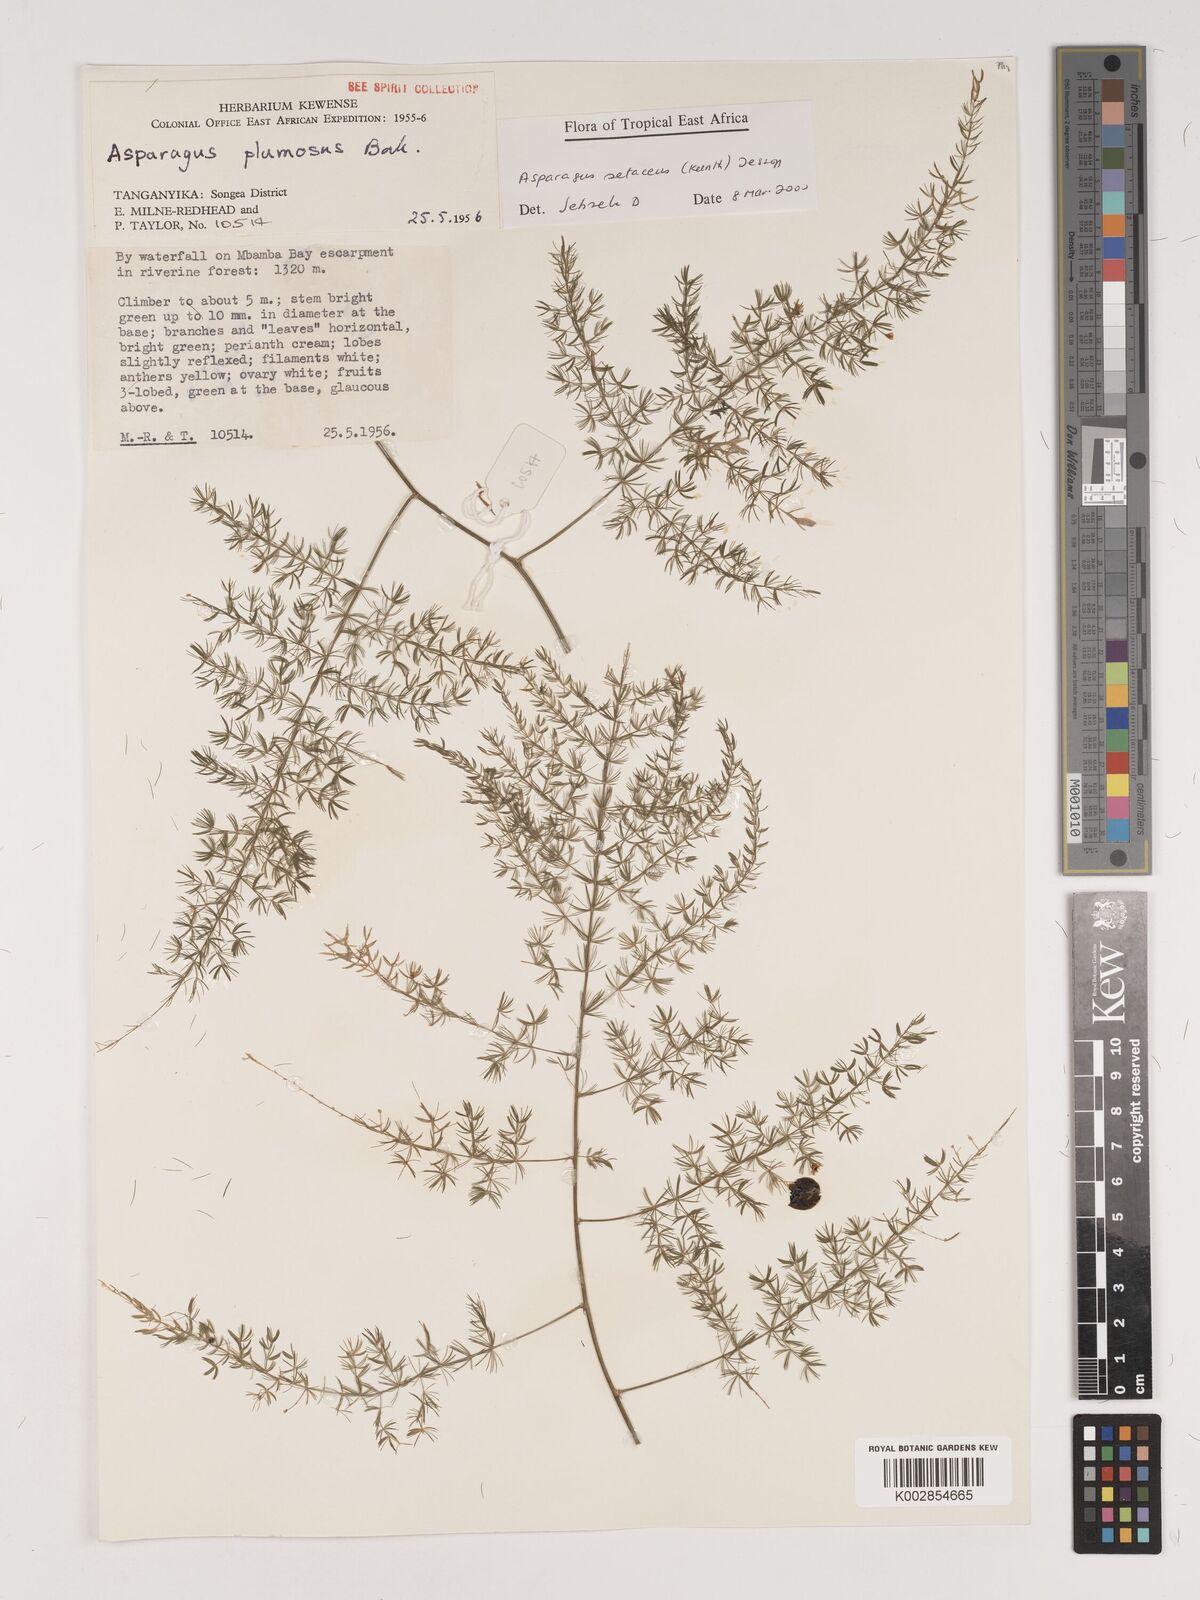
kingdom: Plantae
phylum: Tracheophyta
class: Liliopsida
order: Asparagales
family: Asparagaceae
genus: Asparagus
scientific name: Asparagus setaceus
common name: Common asparagus fern
